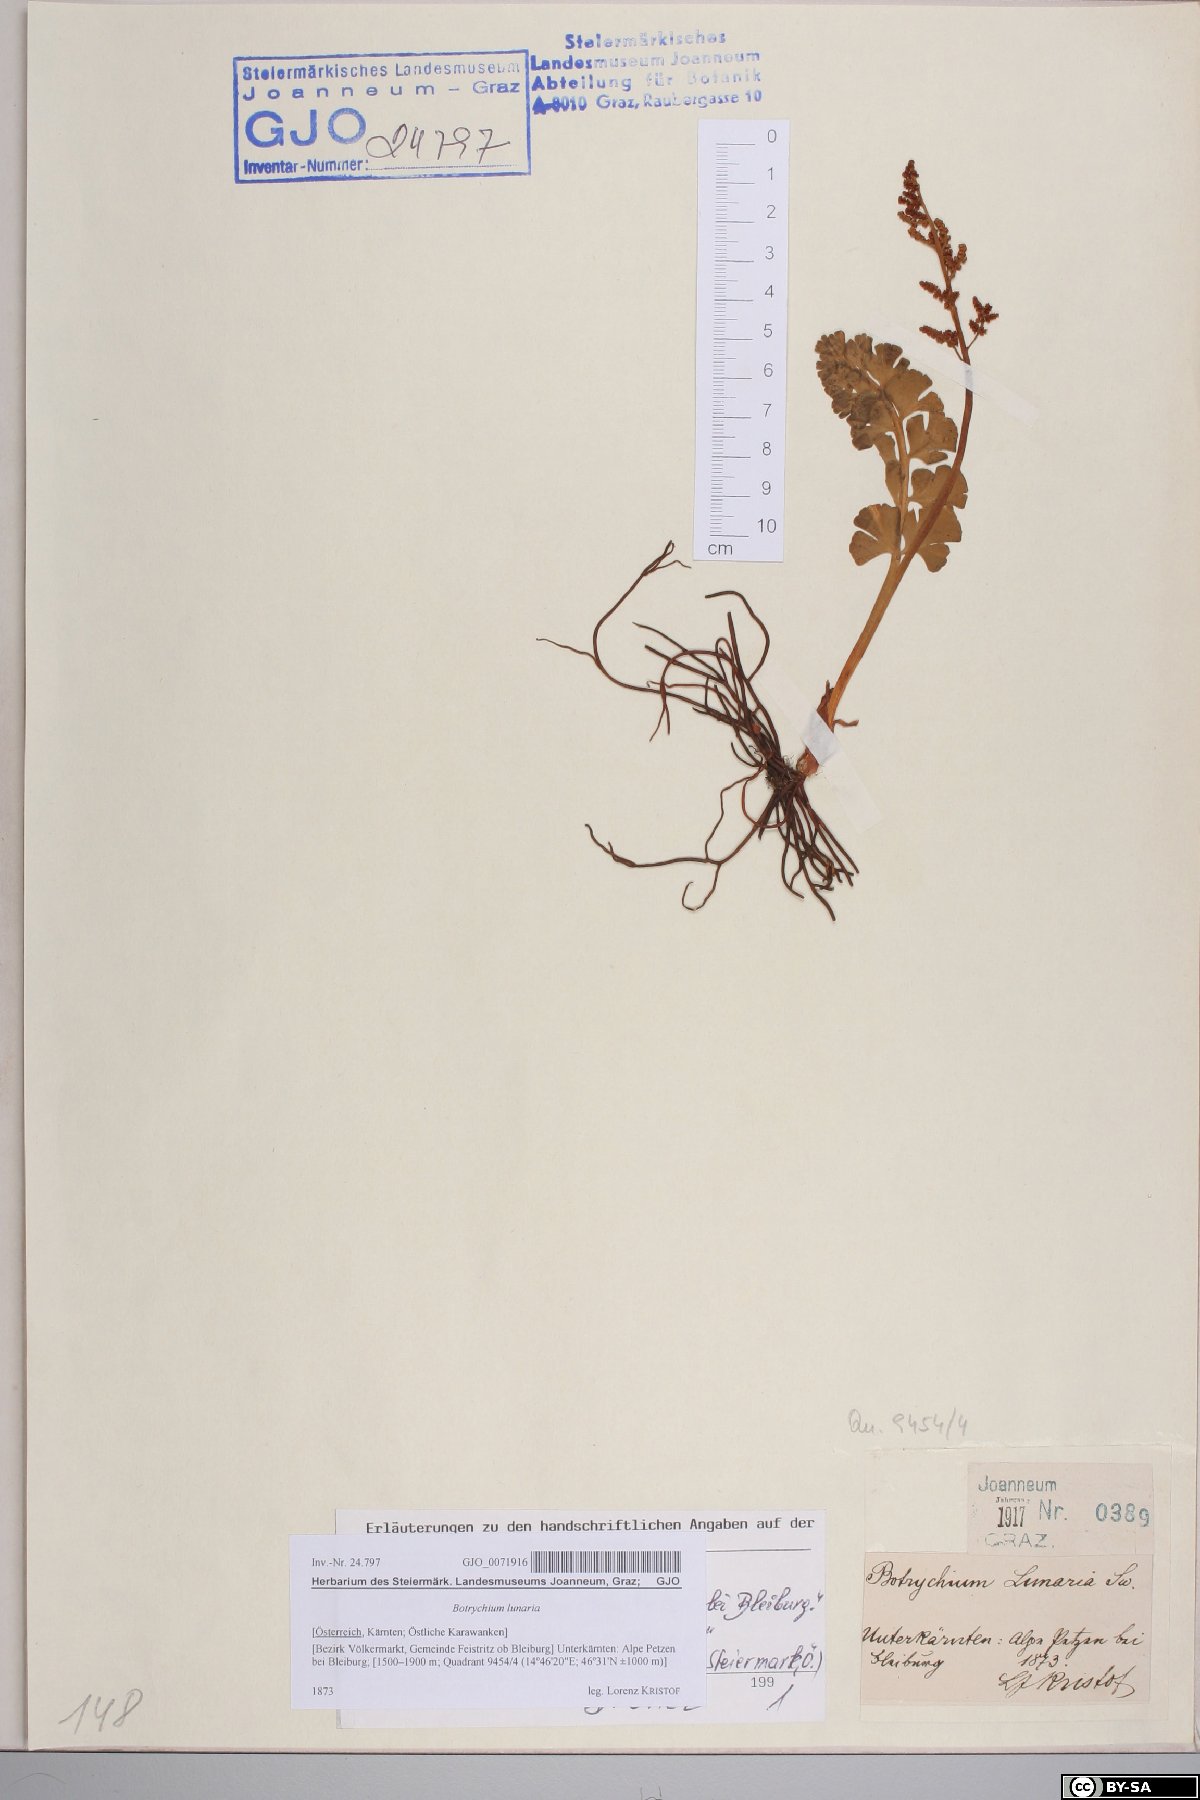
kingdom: Plantae
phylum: Tracheophyta
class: Polypodiopsida
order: Ophioglossales
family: Ophioglossaceae
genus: Botrychium
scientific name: Botrychium lunaria
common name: Moonwort
